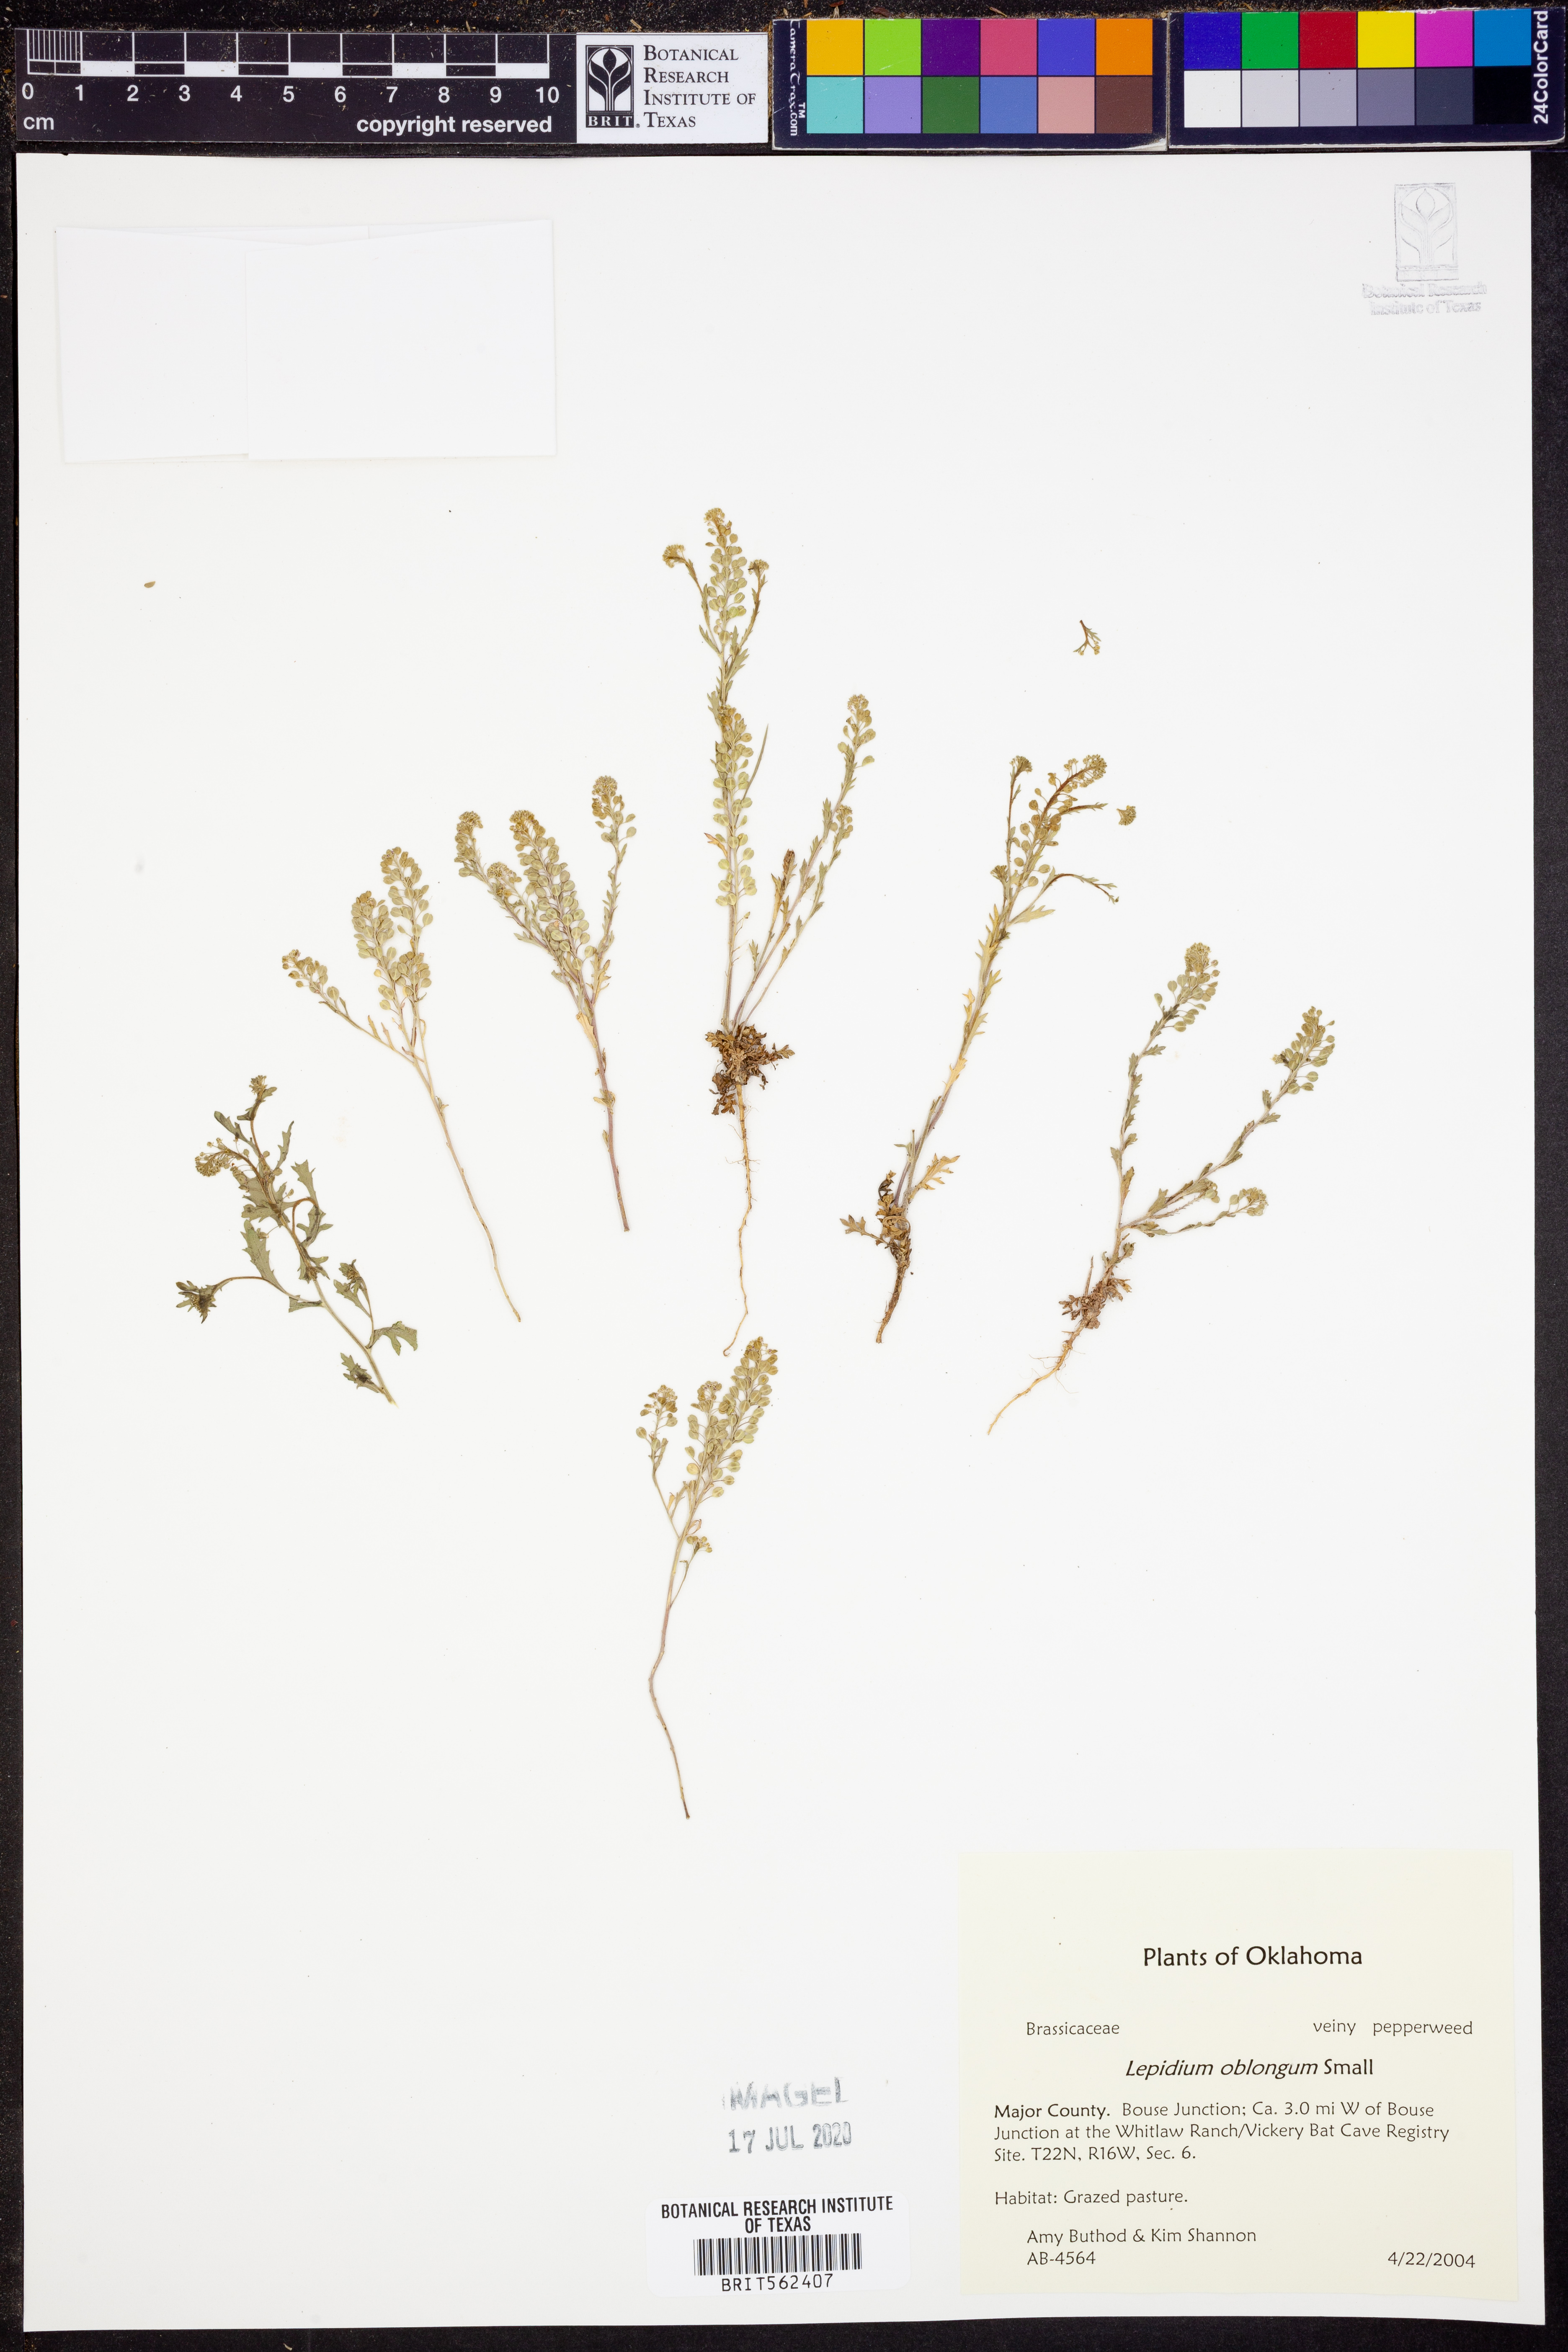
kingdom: Plantae
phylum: Tracheophyta
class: Magnoliopsida
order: Brassicales
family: Brassicaceae
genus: Lepidium
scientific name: Lepidium oblongum
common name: Veiny pepperweed
